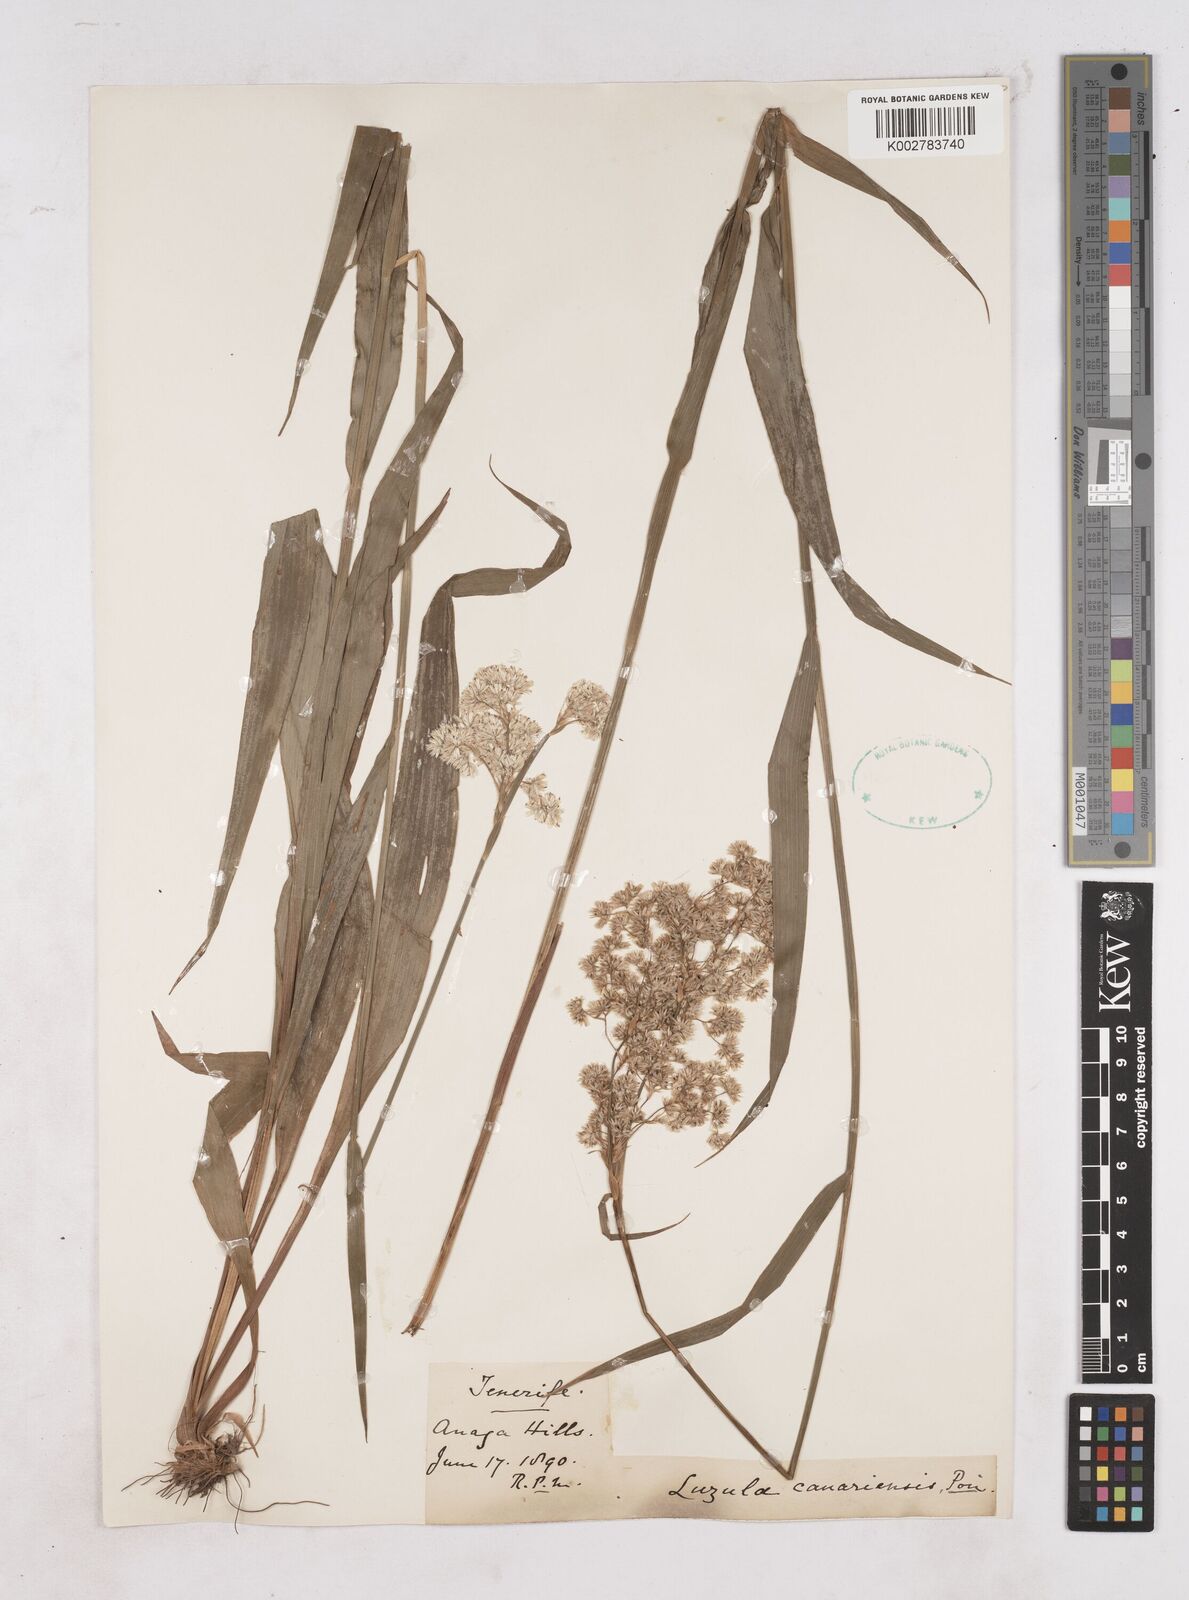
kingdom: Plantae
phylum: Tracheophyta
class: Liliopsida
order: Poales
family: Juncaceae
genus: Luzula
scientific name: Luzula canariensis
